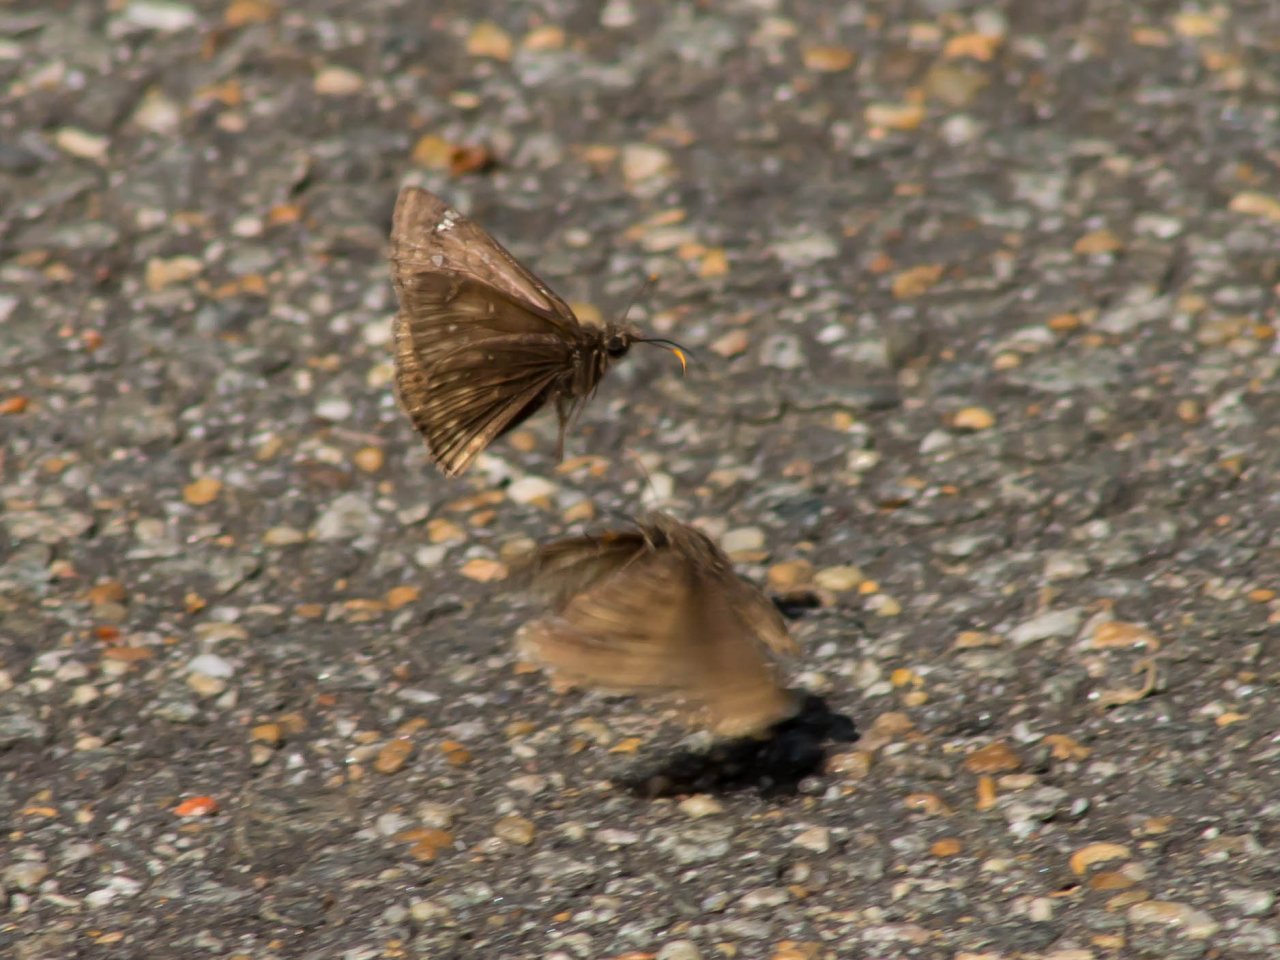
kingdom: Animalia
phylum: Arthropoda
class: Insecta
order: Lepidoptera
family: Hesperiidae
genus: Gesta
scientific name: Gesta
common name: Juvenal's Duskywing
